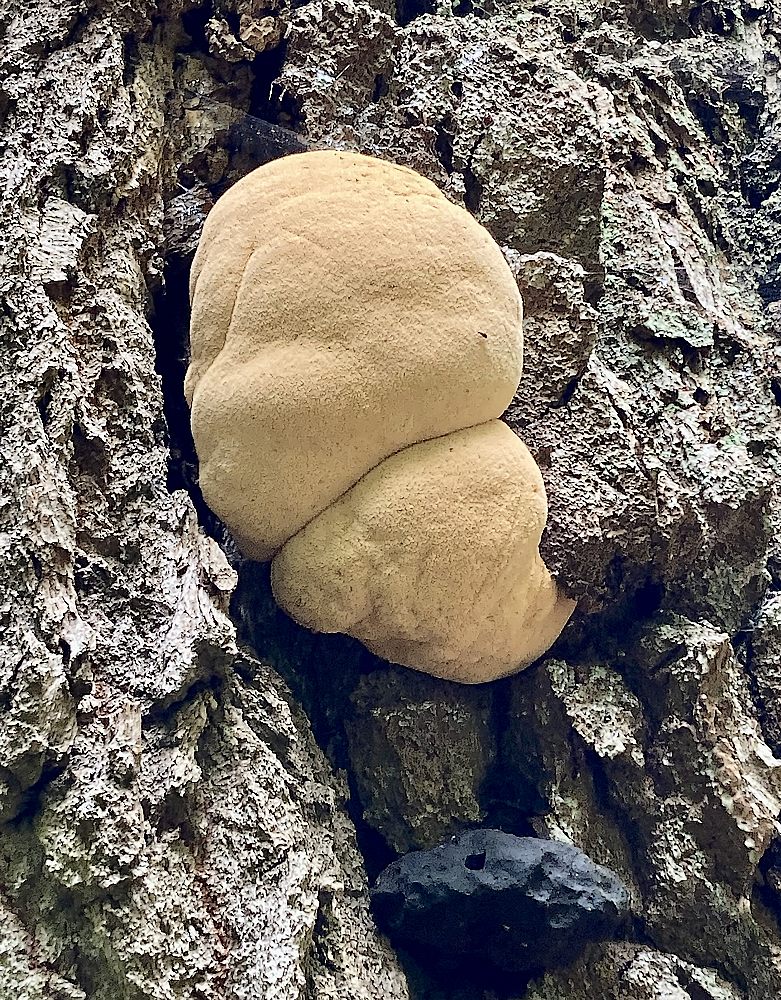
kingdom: Fungi
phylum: Basidiomycota
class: Agaricomycetes
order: Agaricales
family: Fistulinaceae
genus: Fistulina
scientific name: Fistulina hepatica
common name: oksetunge
